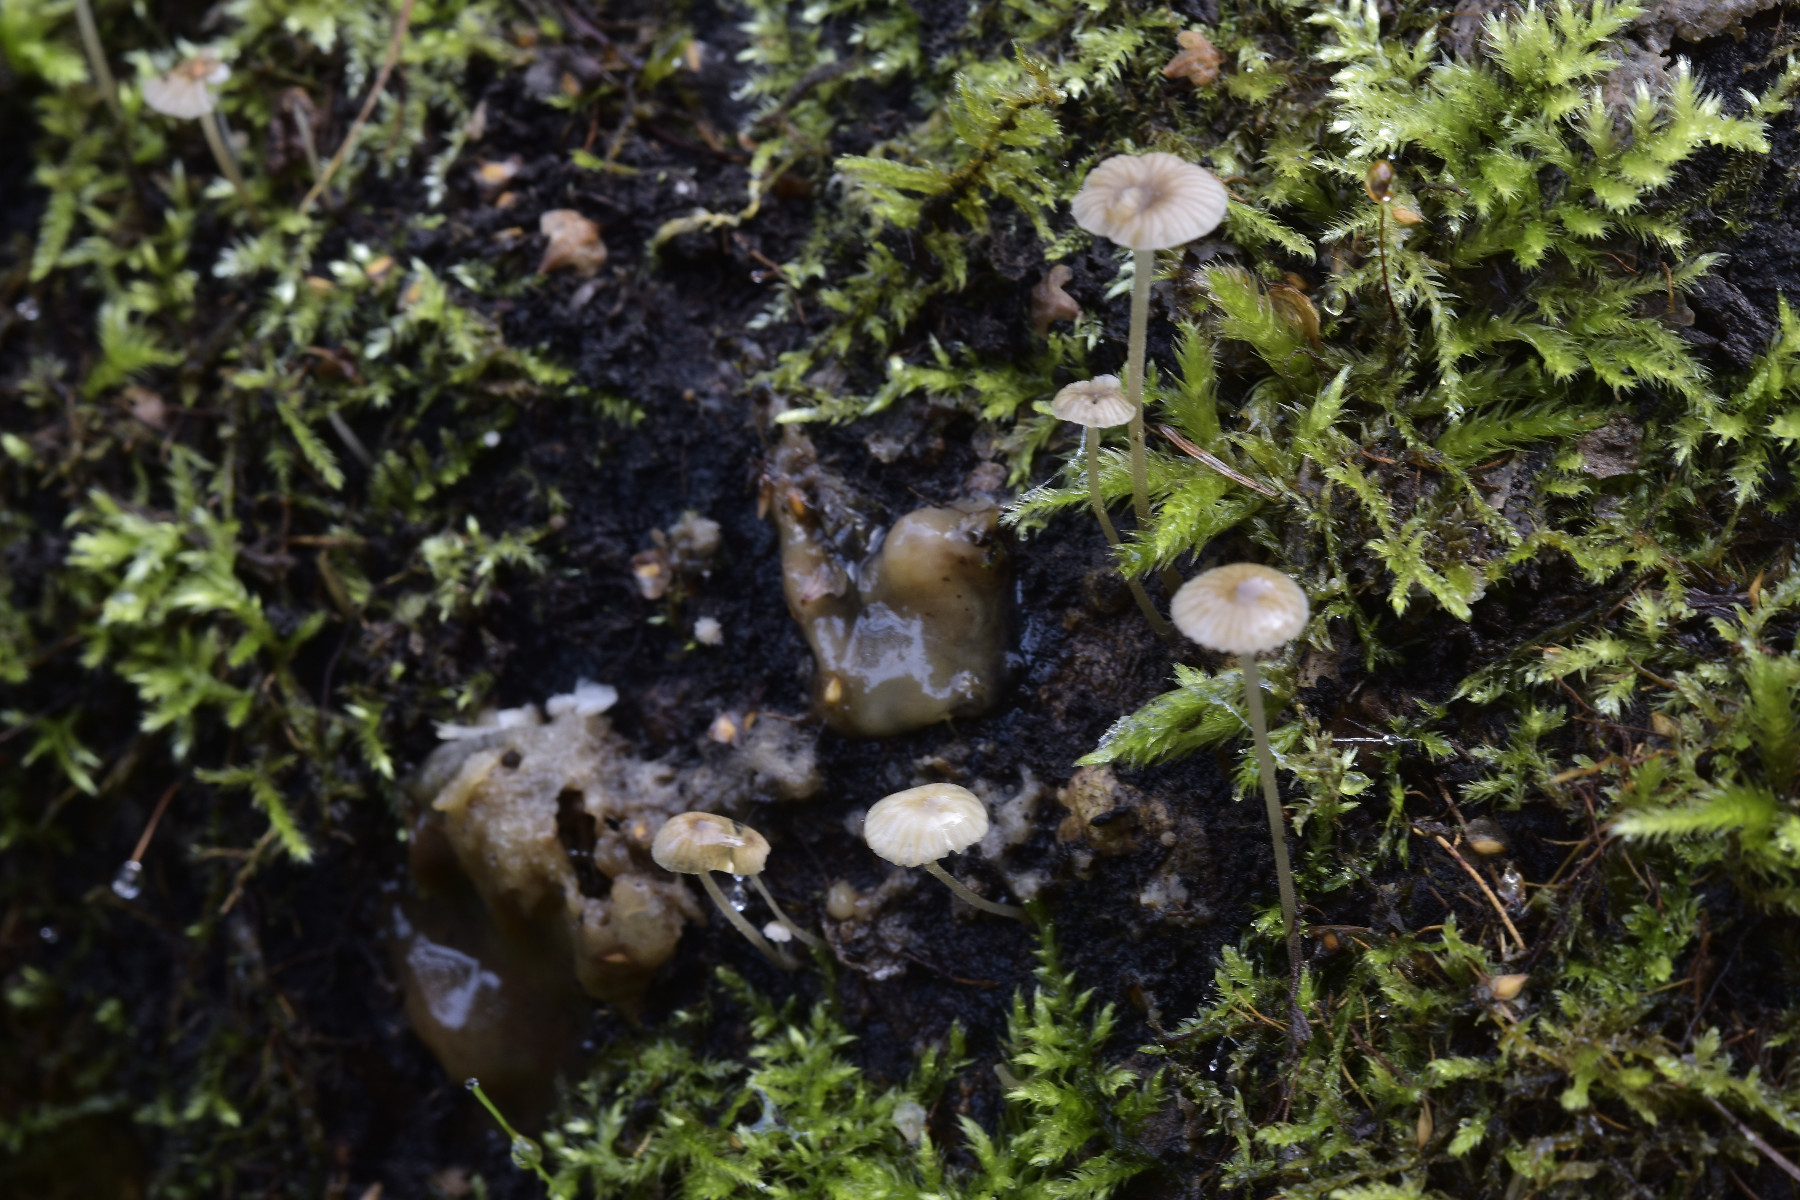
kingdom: Fungi
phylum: Basidiomycota
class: Agaricomycetes
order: Agaricales
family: Porotheleaceae
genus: Phloeomana
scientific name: Phloeomana speirea
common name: kvist-huesvamp
